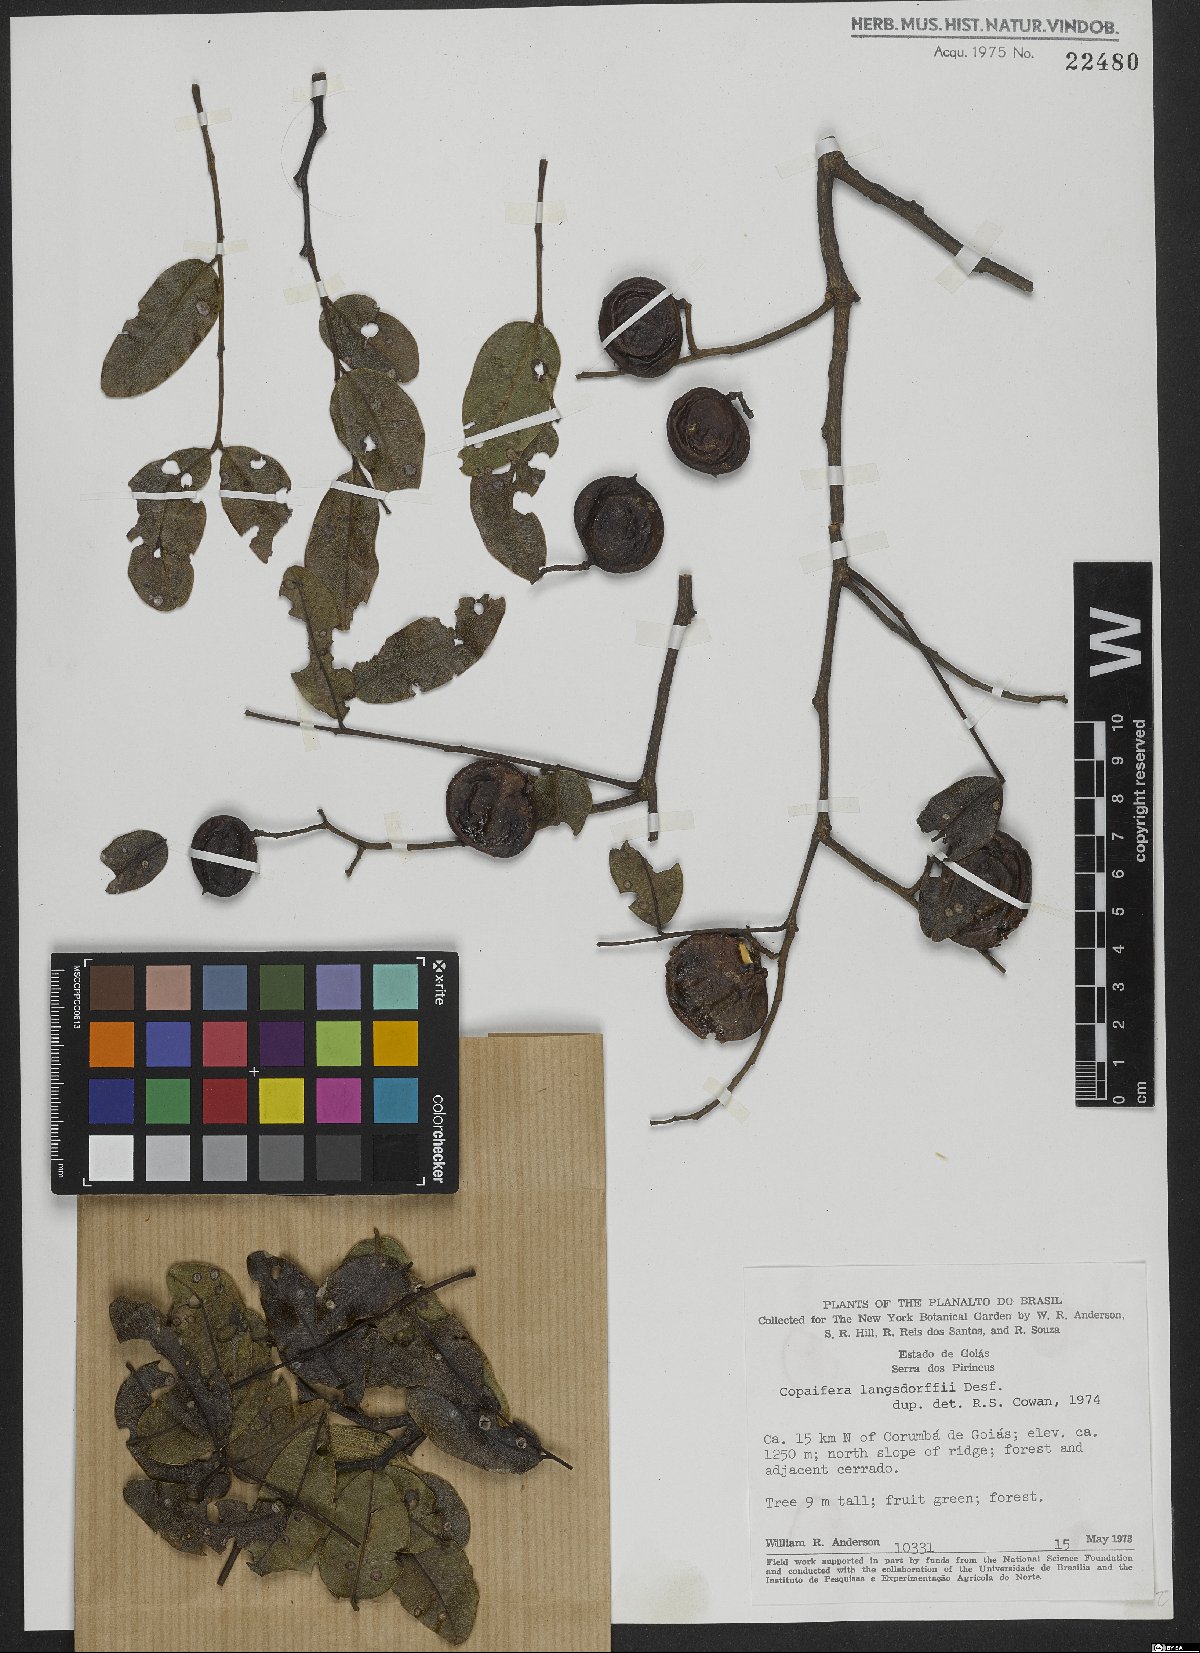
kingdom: Plantae
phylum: Tracheophyta
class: Magnoliopsida
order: Fabales
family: Fabaceae
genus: Copaifera
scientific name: Copaifera langsdorffii
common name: Brazilian diesel tree
